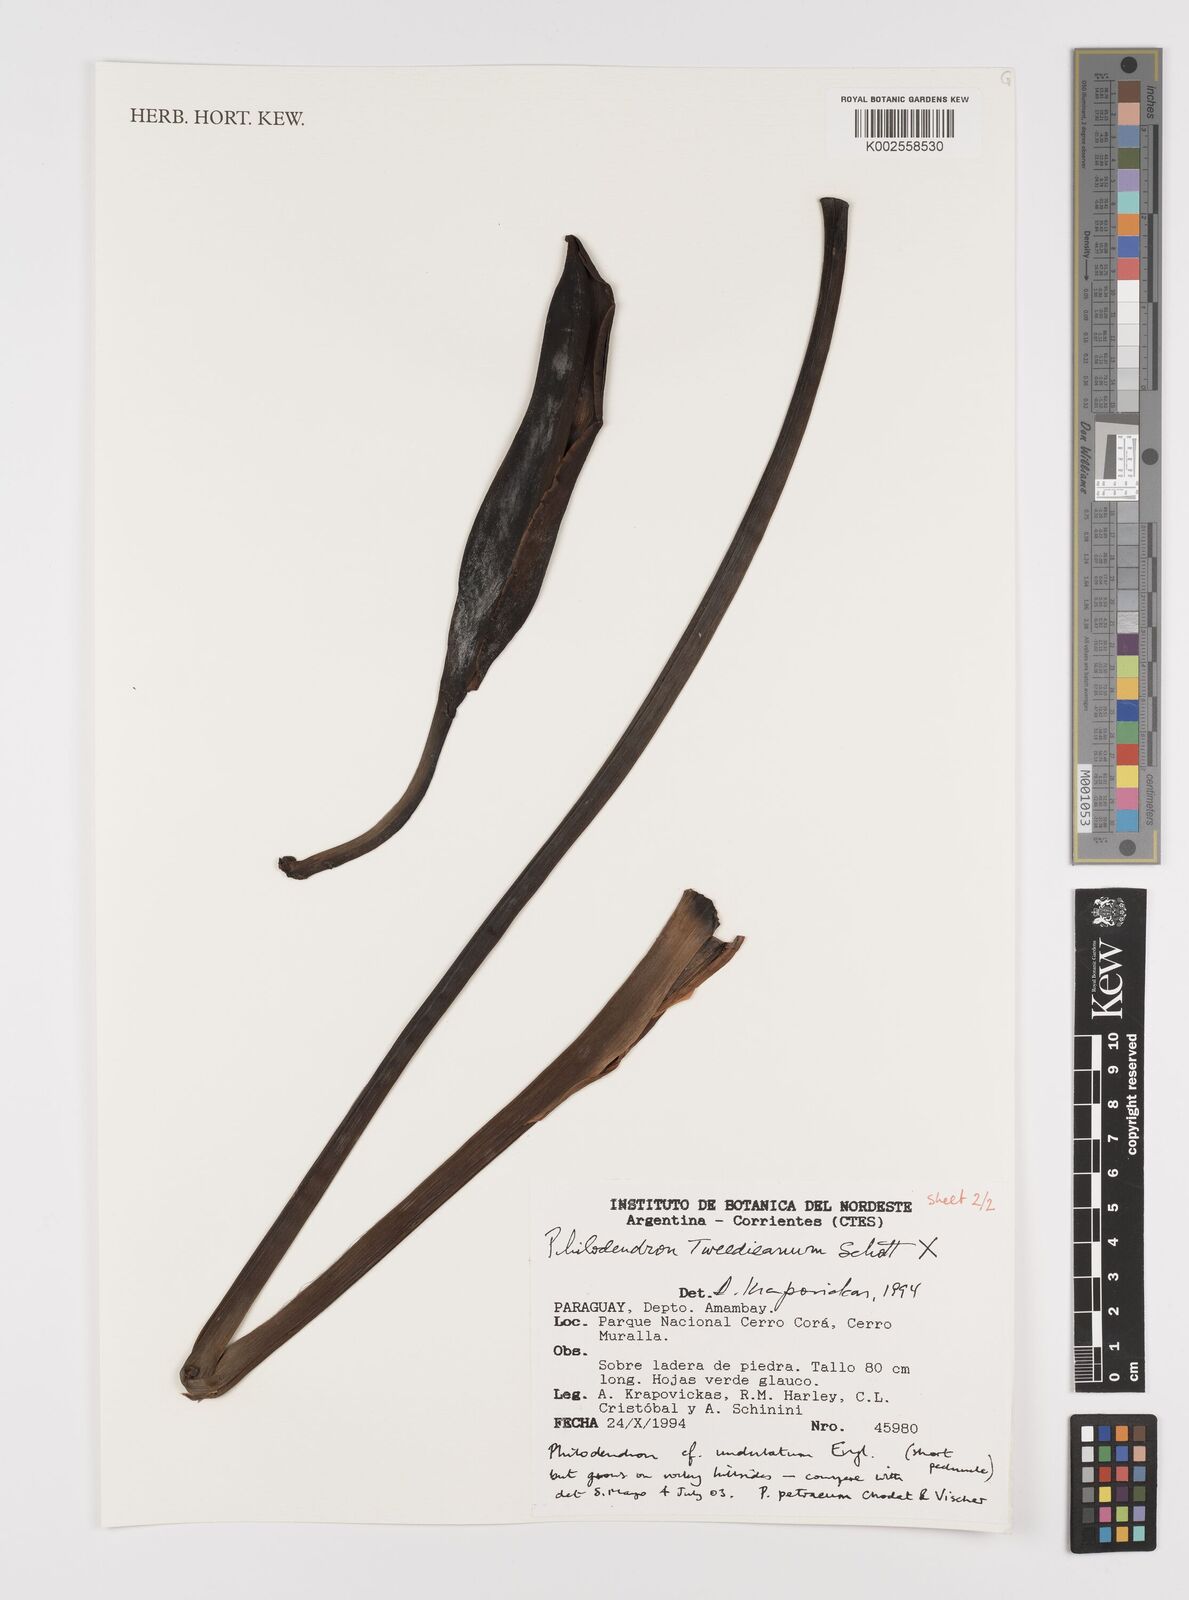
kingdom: Plantae
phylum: Tracheophyta
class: Liliopsida
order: Alismatales
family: Araceae
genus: Thaumatophyllum
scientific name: Thaumatophyllum undulatum
